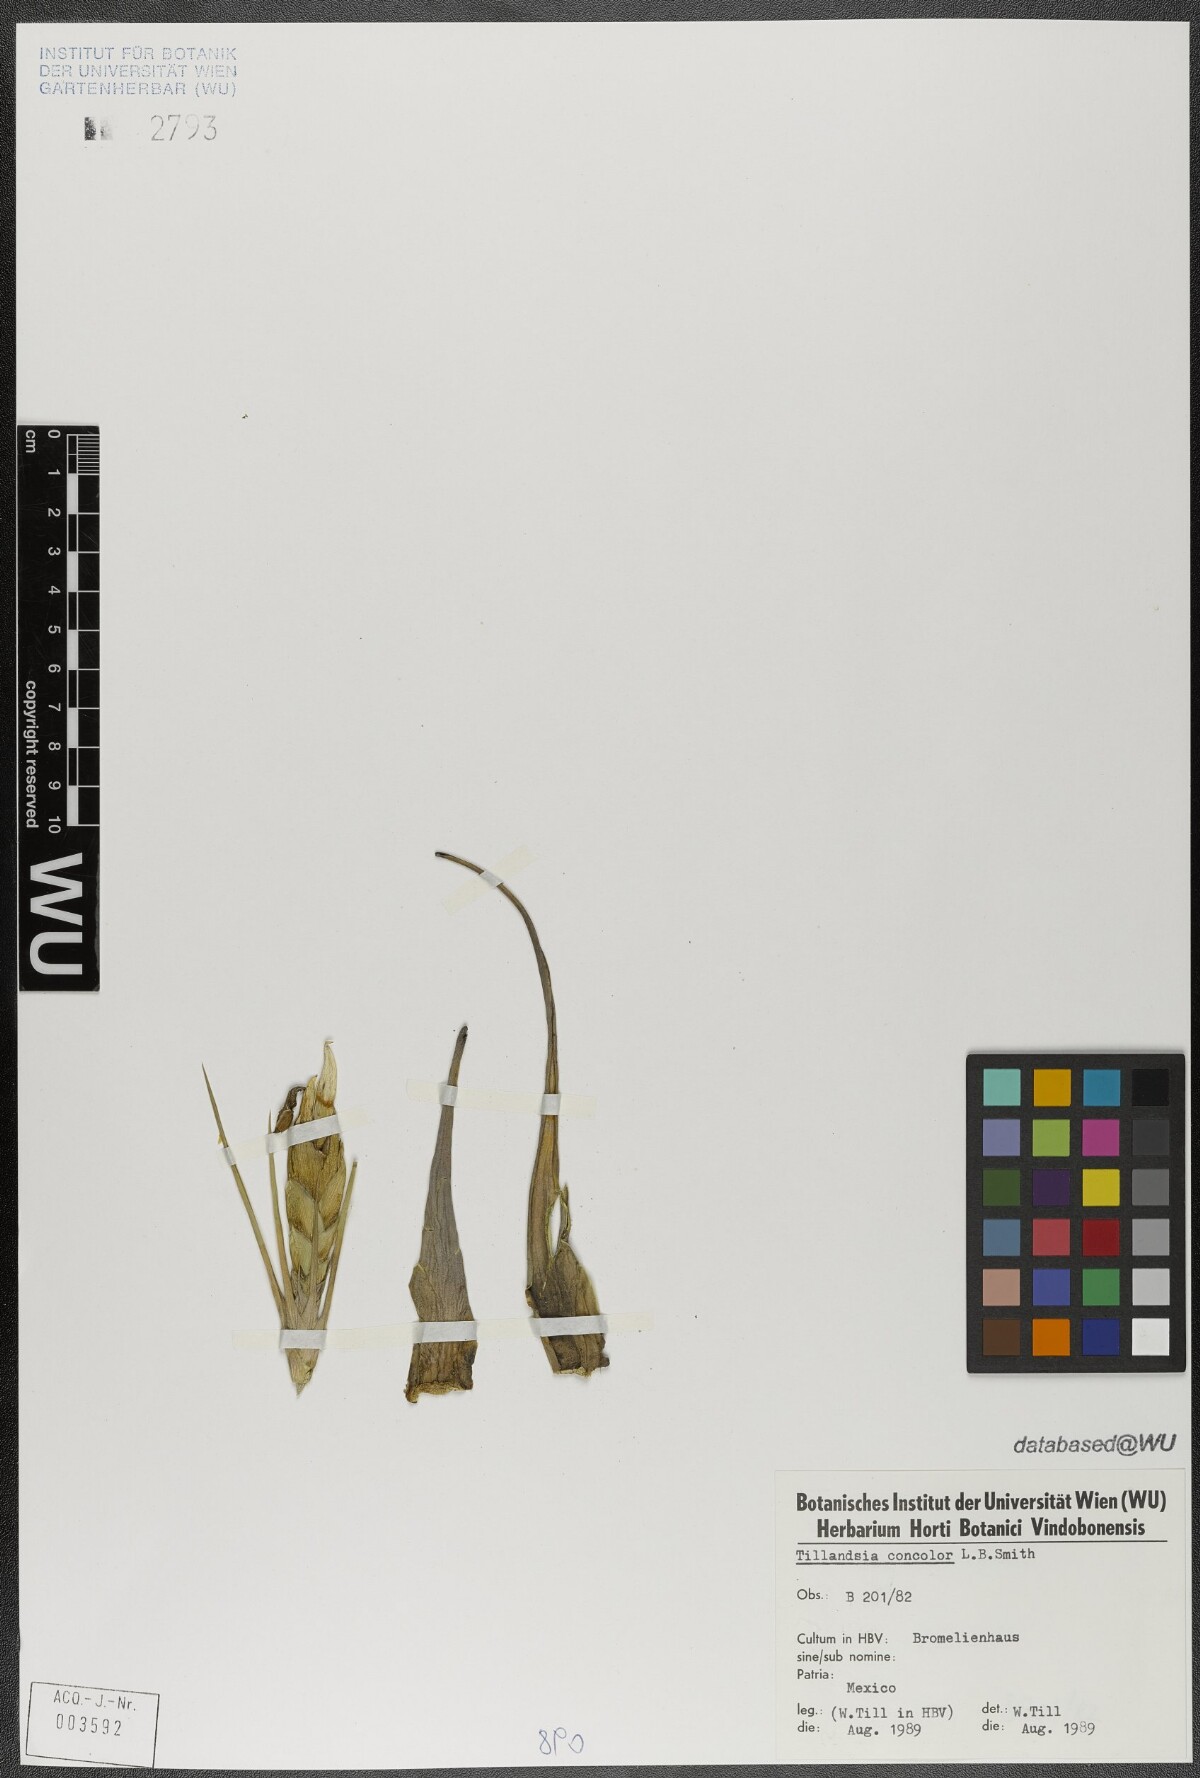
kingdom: Plantae
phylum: Tracheophyta
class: Liliopsida
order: Poales
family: Bromeliaceae
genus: Tillandsia
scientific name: Tillandsia concolor
